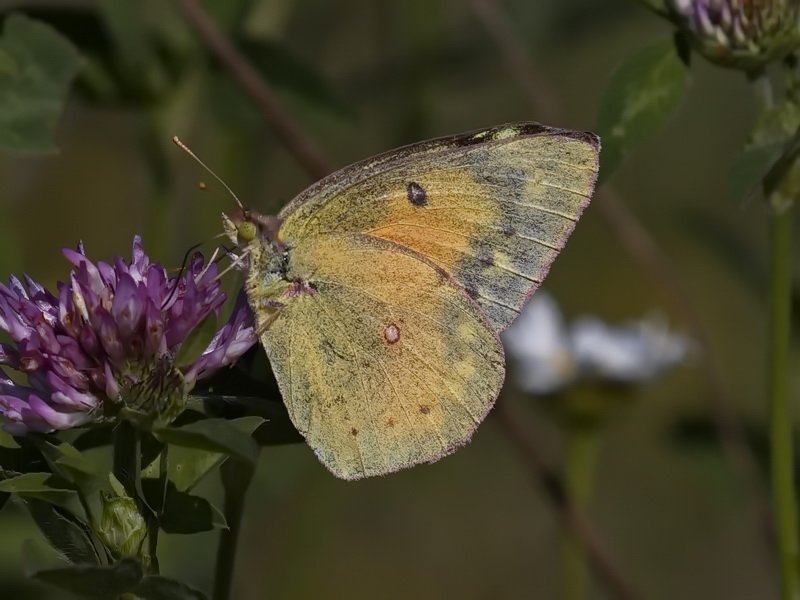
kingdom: Animalia
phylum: Arthropoda
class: Insecta
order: Lepidoptera
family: Pieridae
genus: Colias
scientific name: Colias eurytheme
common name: Orange Sulphur
